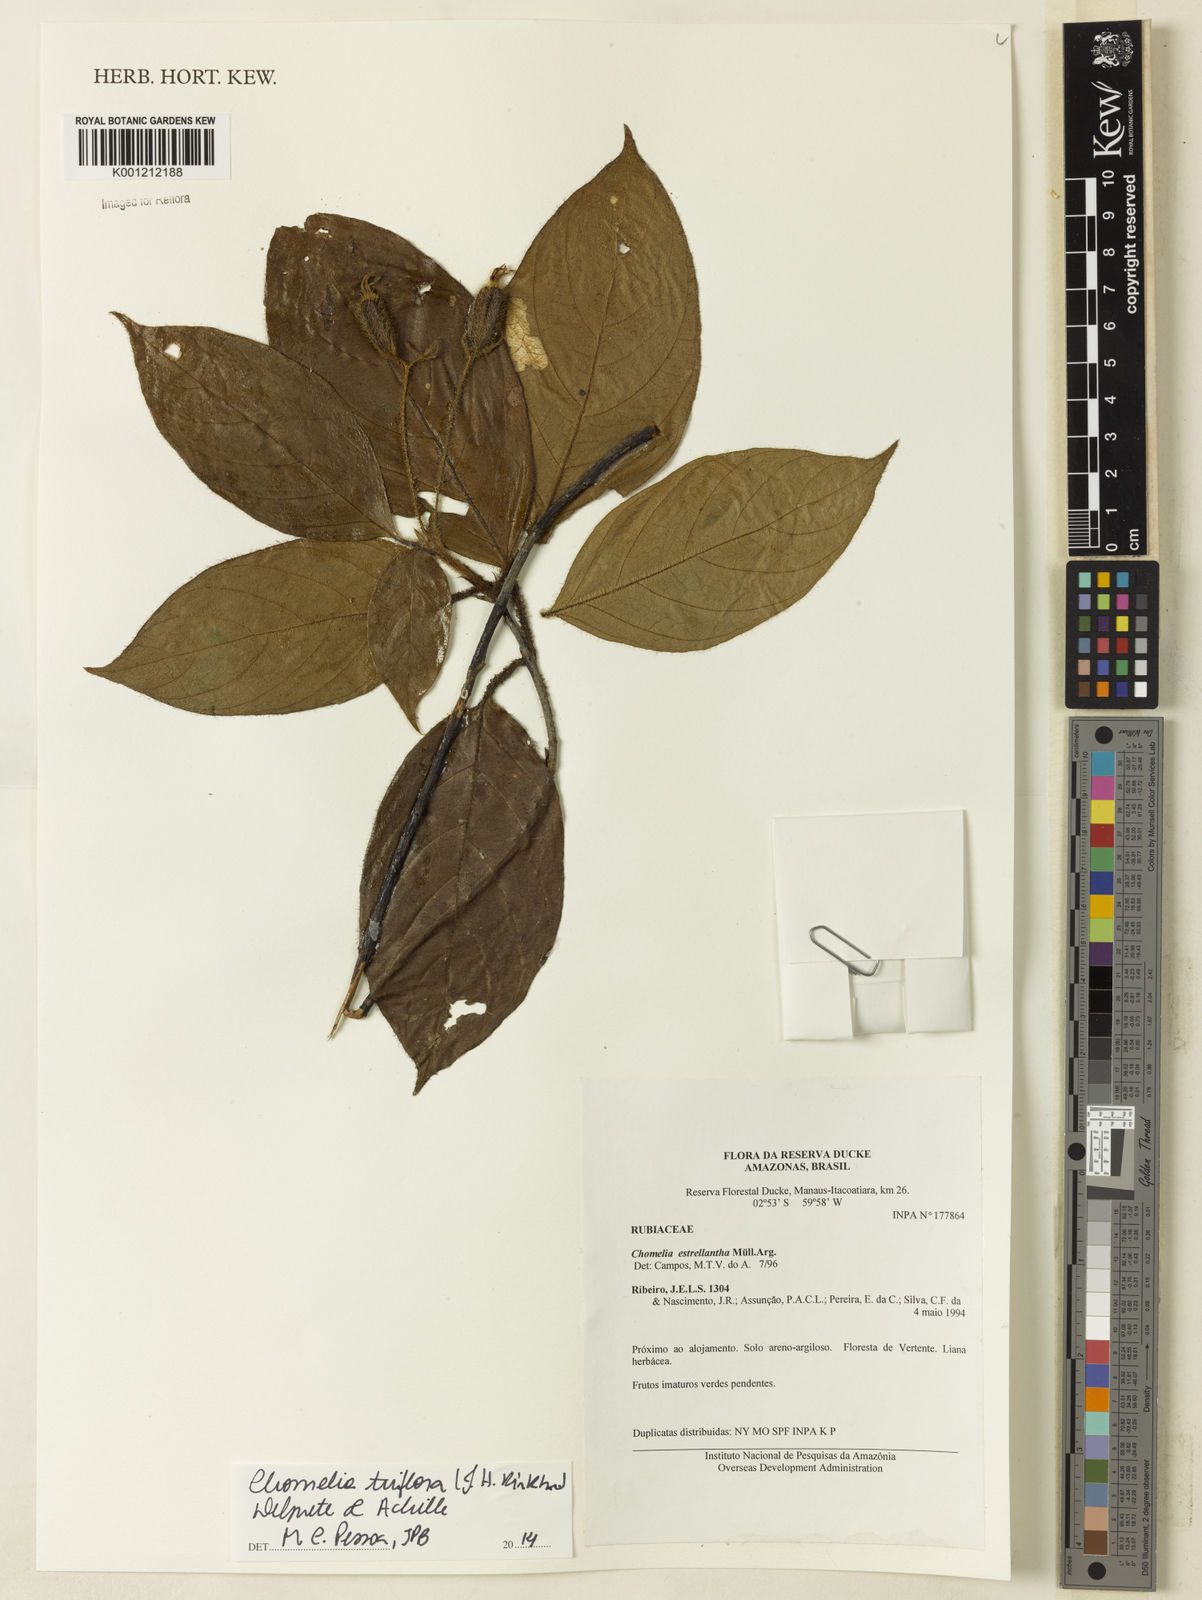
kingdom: Plantae
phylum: Tracheophyta
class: Magnoliopsida
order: Gentianales
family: Rubiaceae
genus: Chomelia
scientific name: Chomelia triflora
